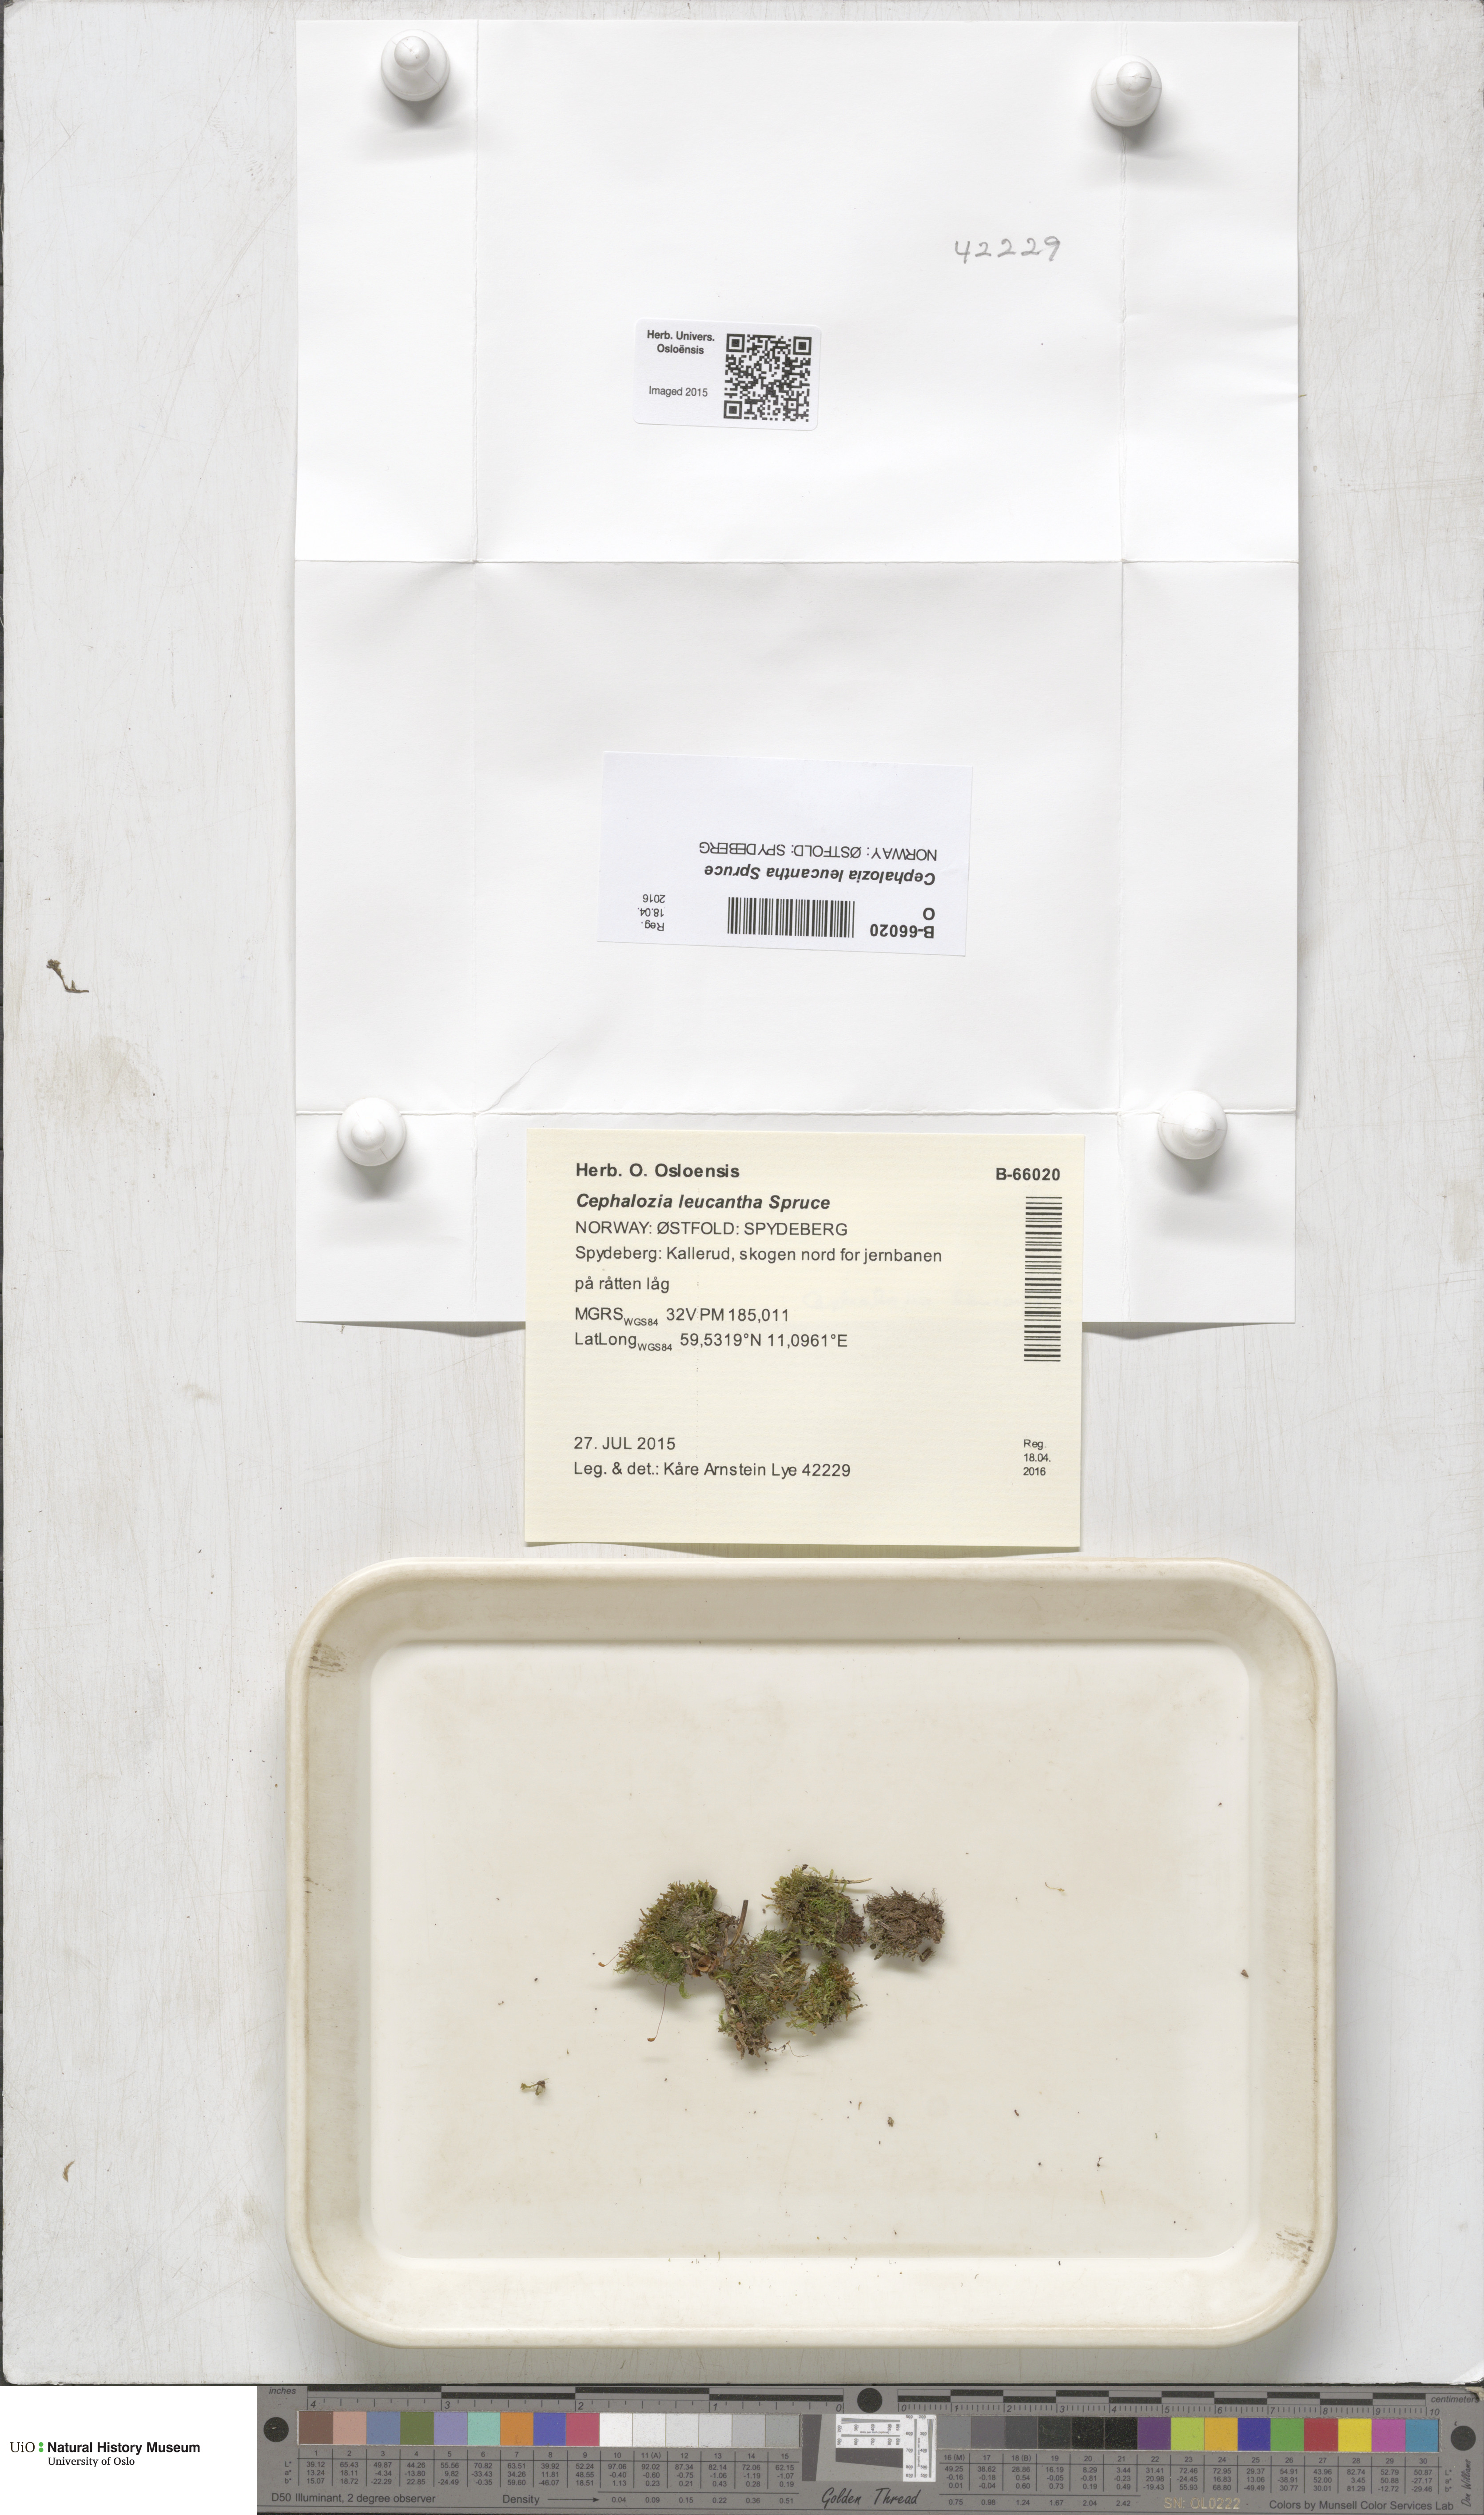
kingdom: Plantae
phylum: Marchantiophyta
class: Jungermanniopsida
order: Jungermanniales
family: Cephaloziaceae
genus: Fuscocephaloziopsis
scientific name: Fuscocephaloziopsis leucantha
